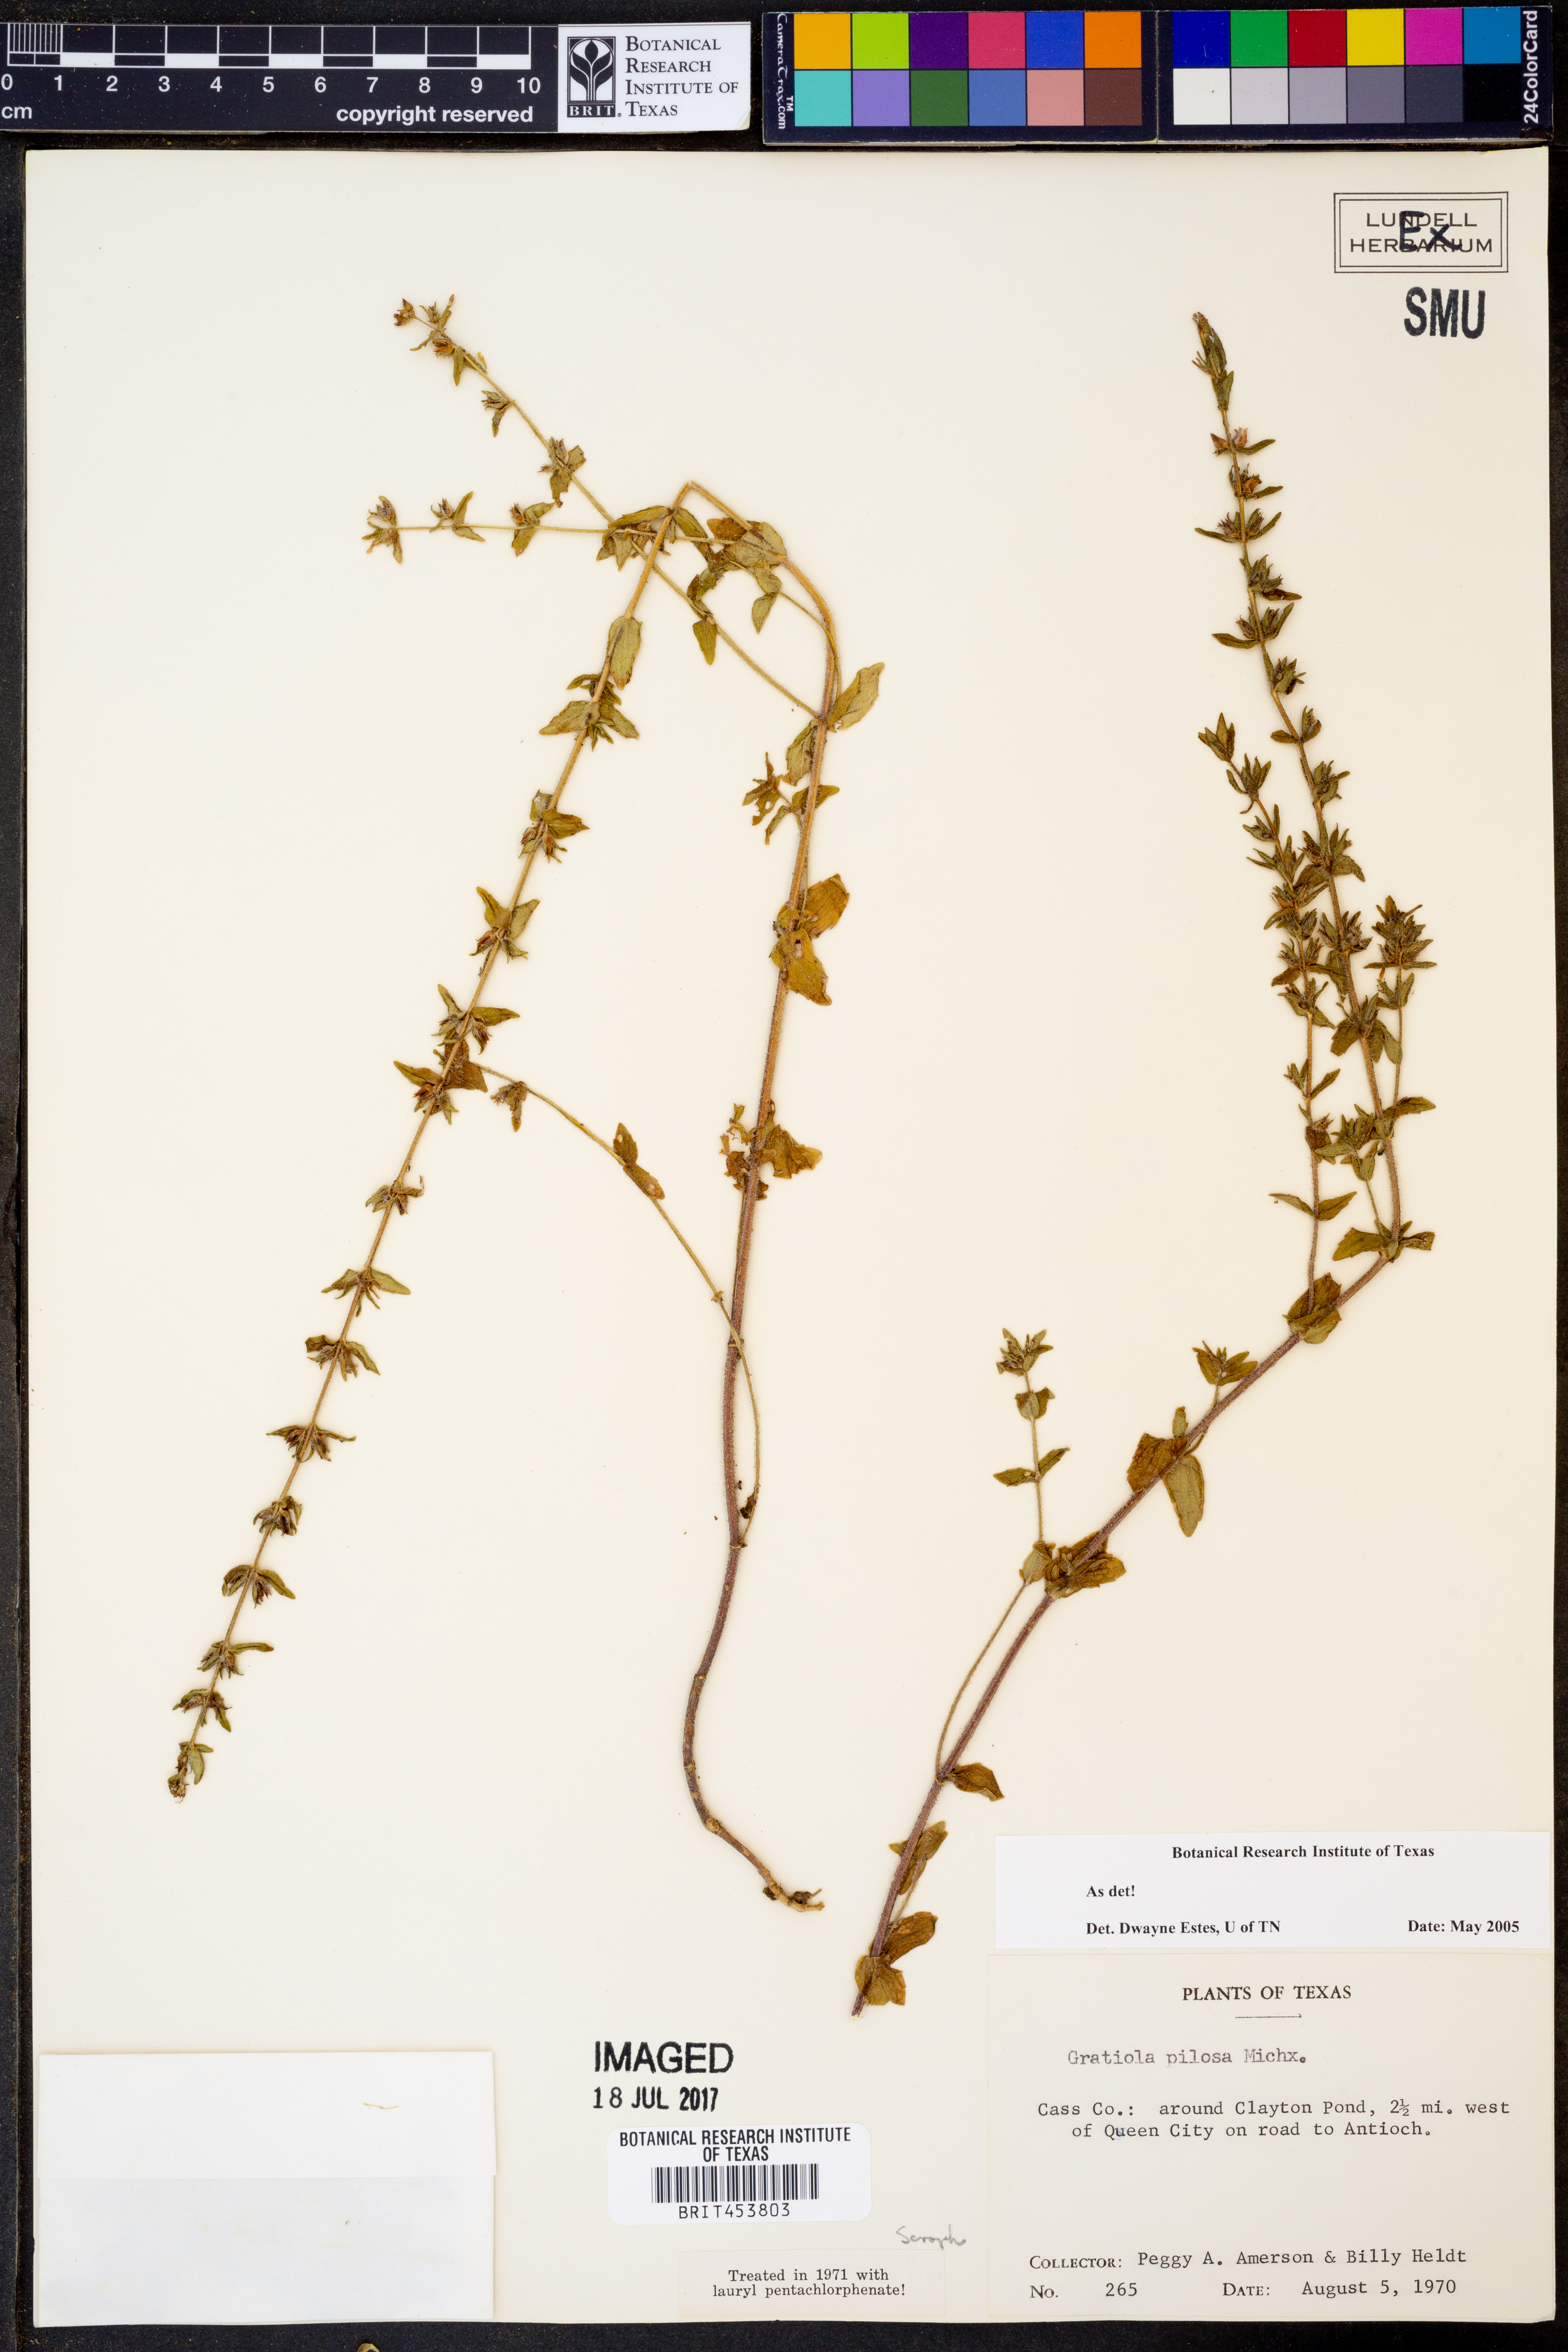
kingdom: Plantae
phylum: Tracheophyta
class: Magnoliopsida
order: Lamiales
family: Plantaginaceae
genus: Gratiola
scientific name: Gratiola pilosa
